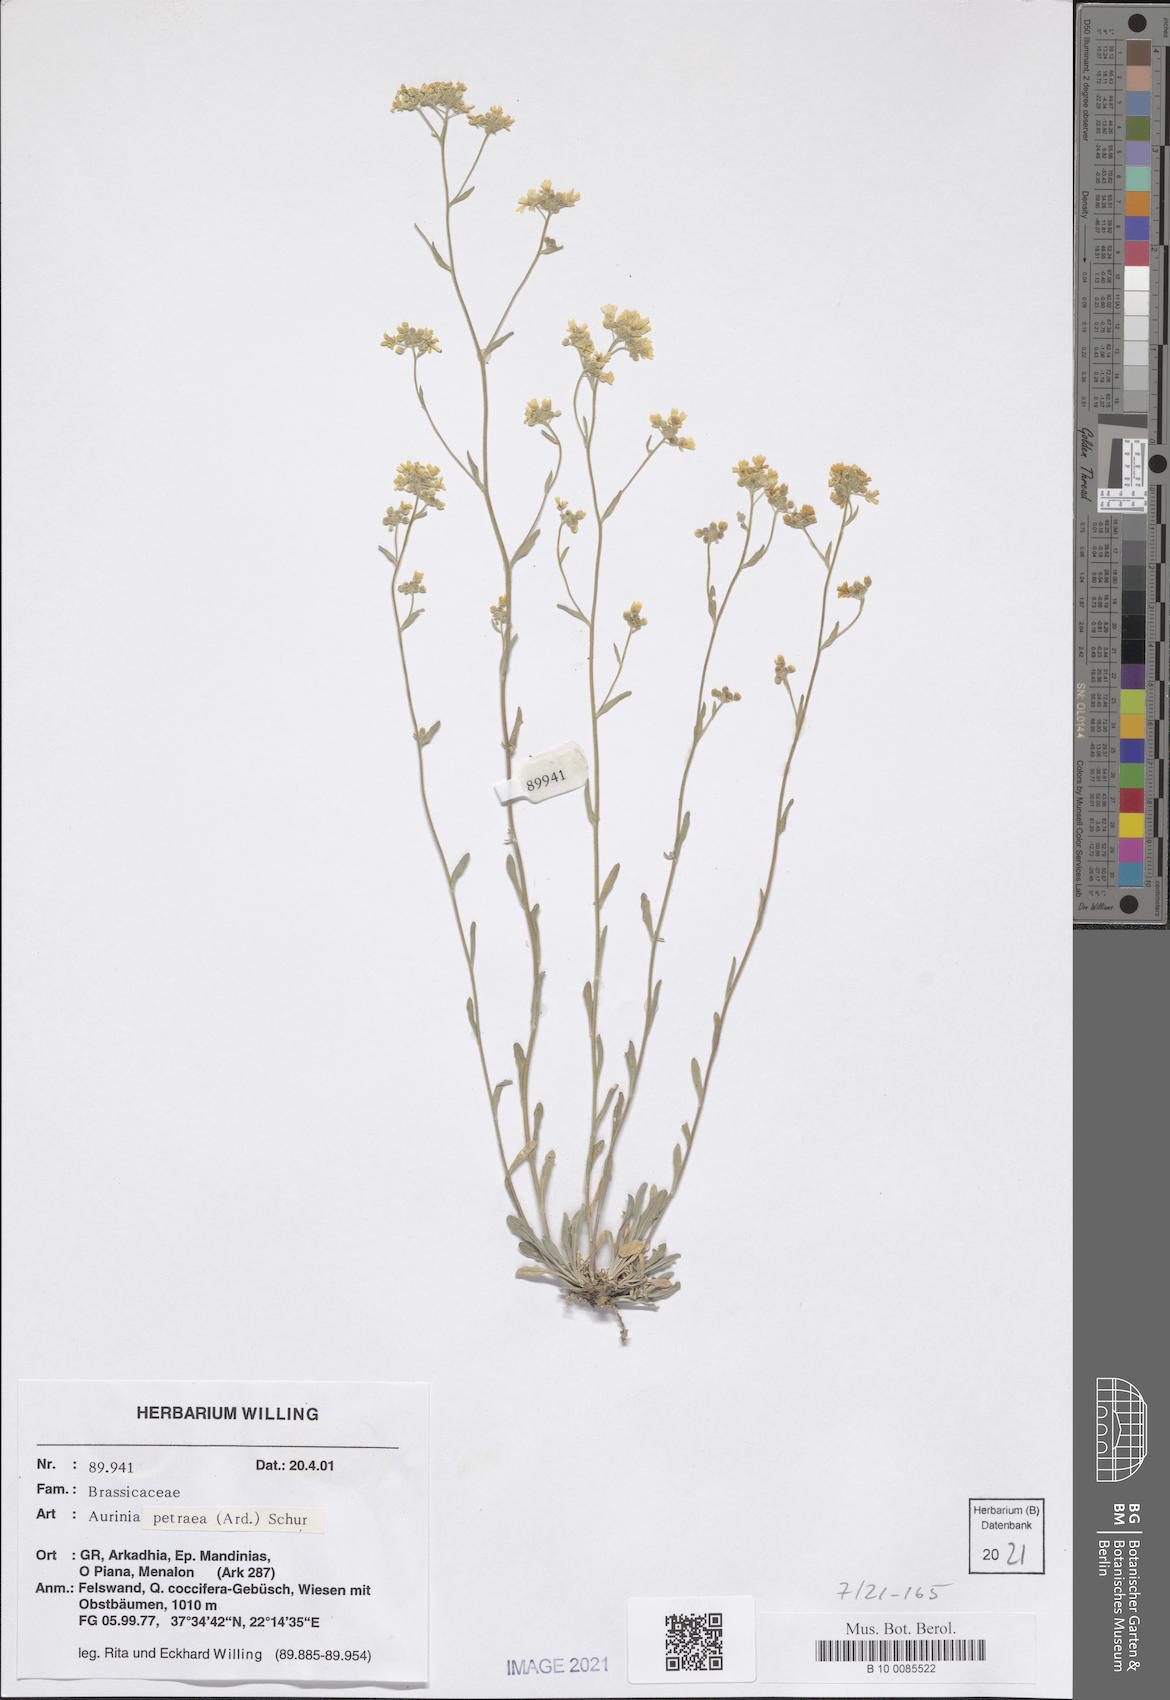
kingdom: Plantae
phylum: Tracheophyta
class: Magnoliopsida
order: Brassicales
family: Brassicaceae
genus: Aurinia
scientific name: Aurinia petraea
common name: Goldentuft
